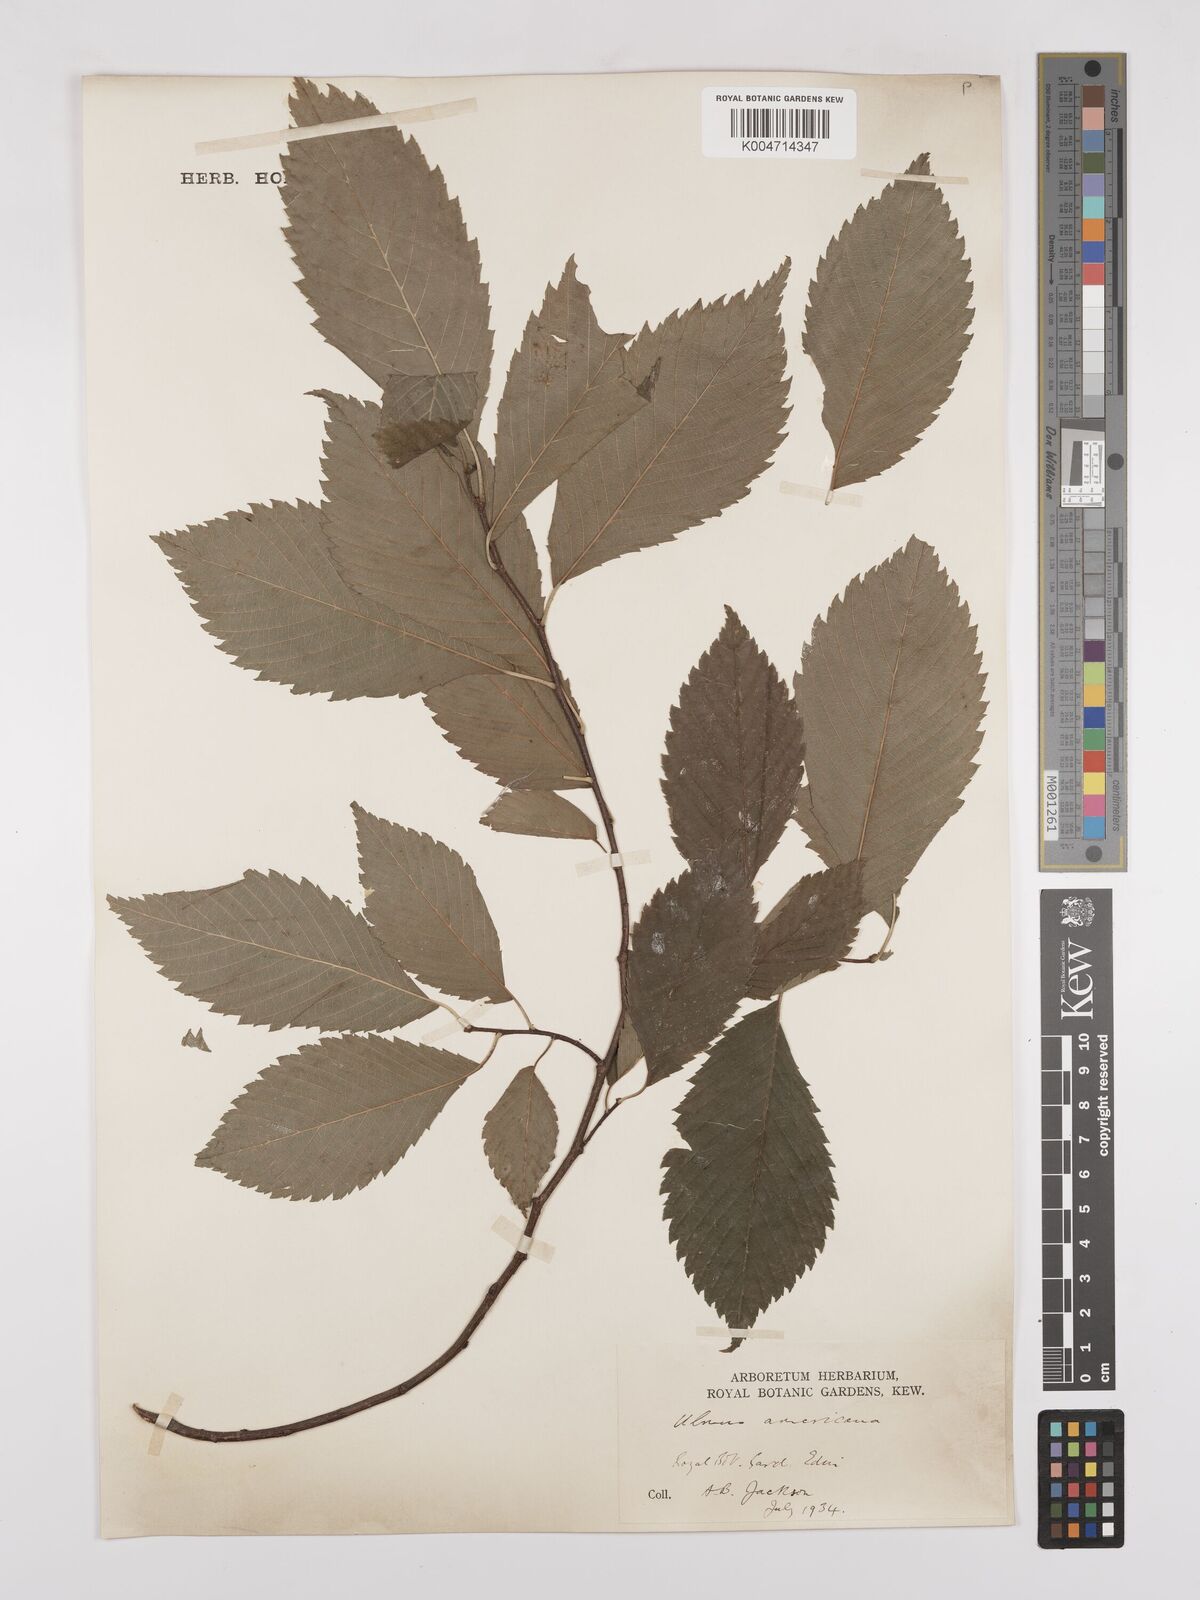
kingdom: Plantae
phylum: Tracheophyta
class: Magnoliopsida
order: Rosales
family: Ulmaceae
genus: Ulmus
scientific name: Ulmus americana
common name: American elm
